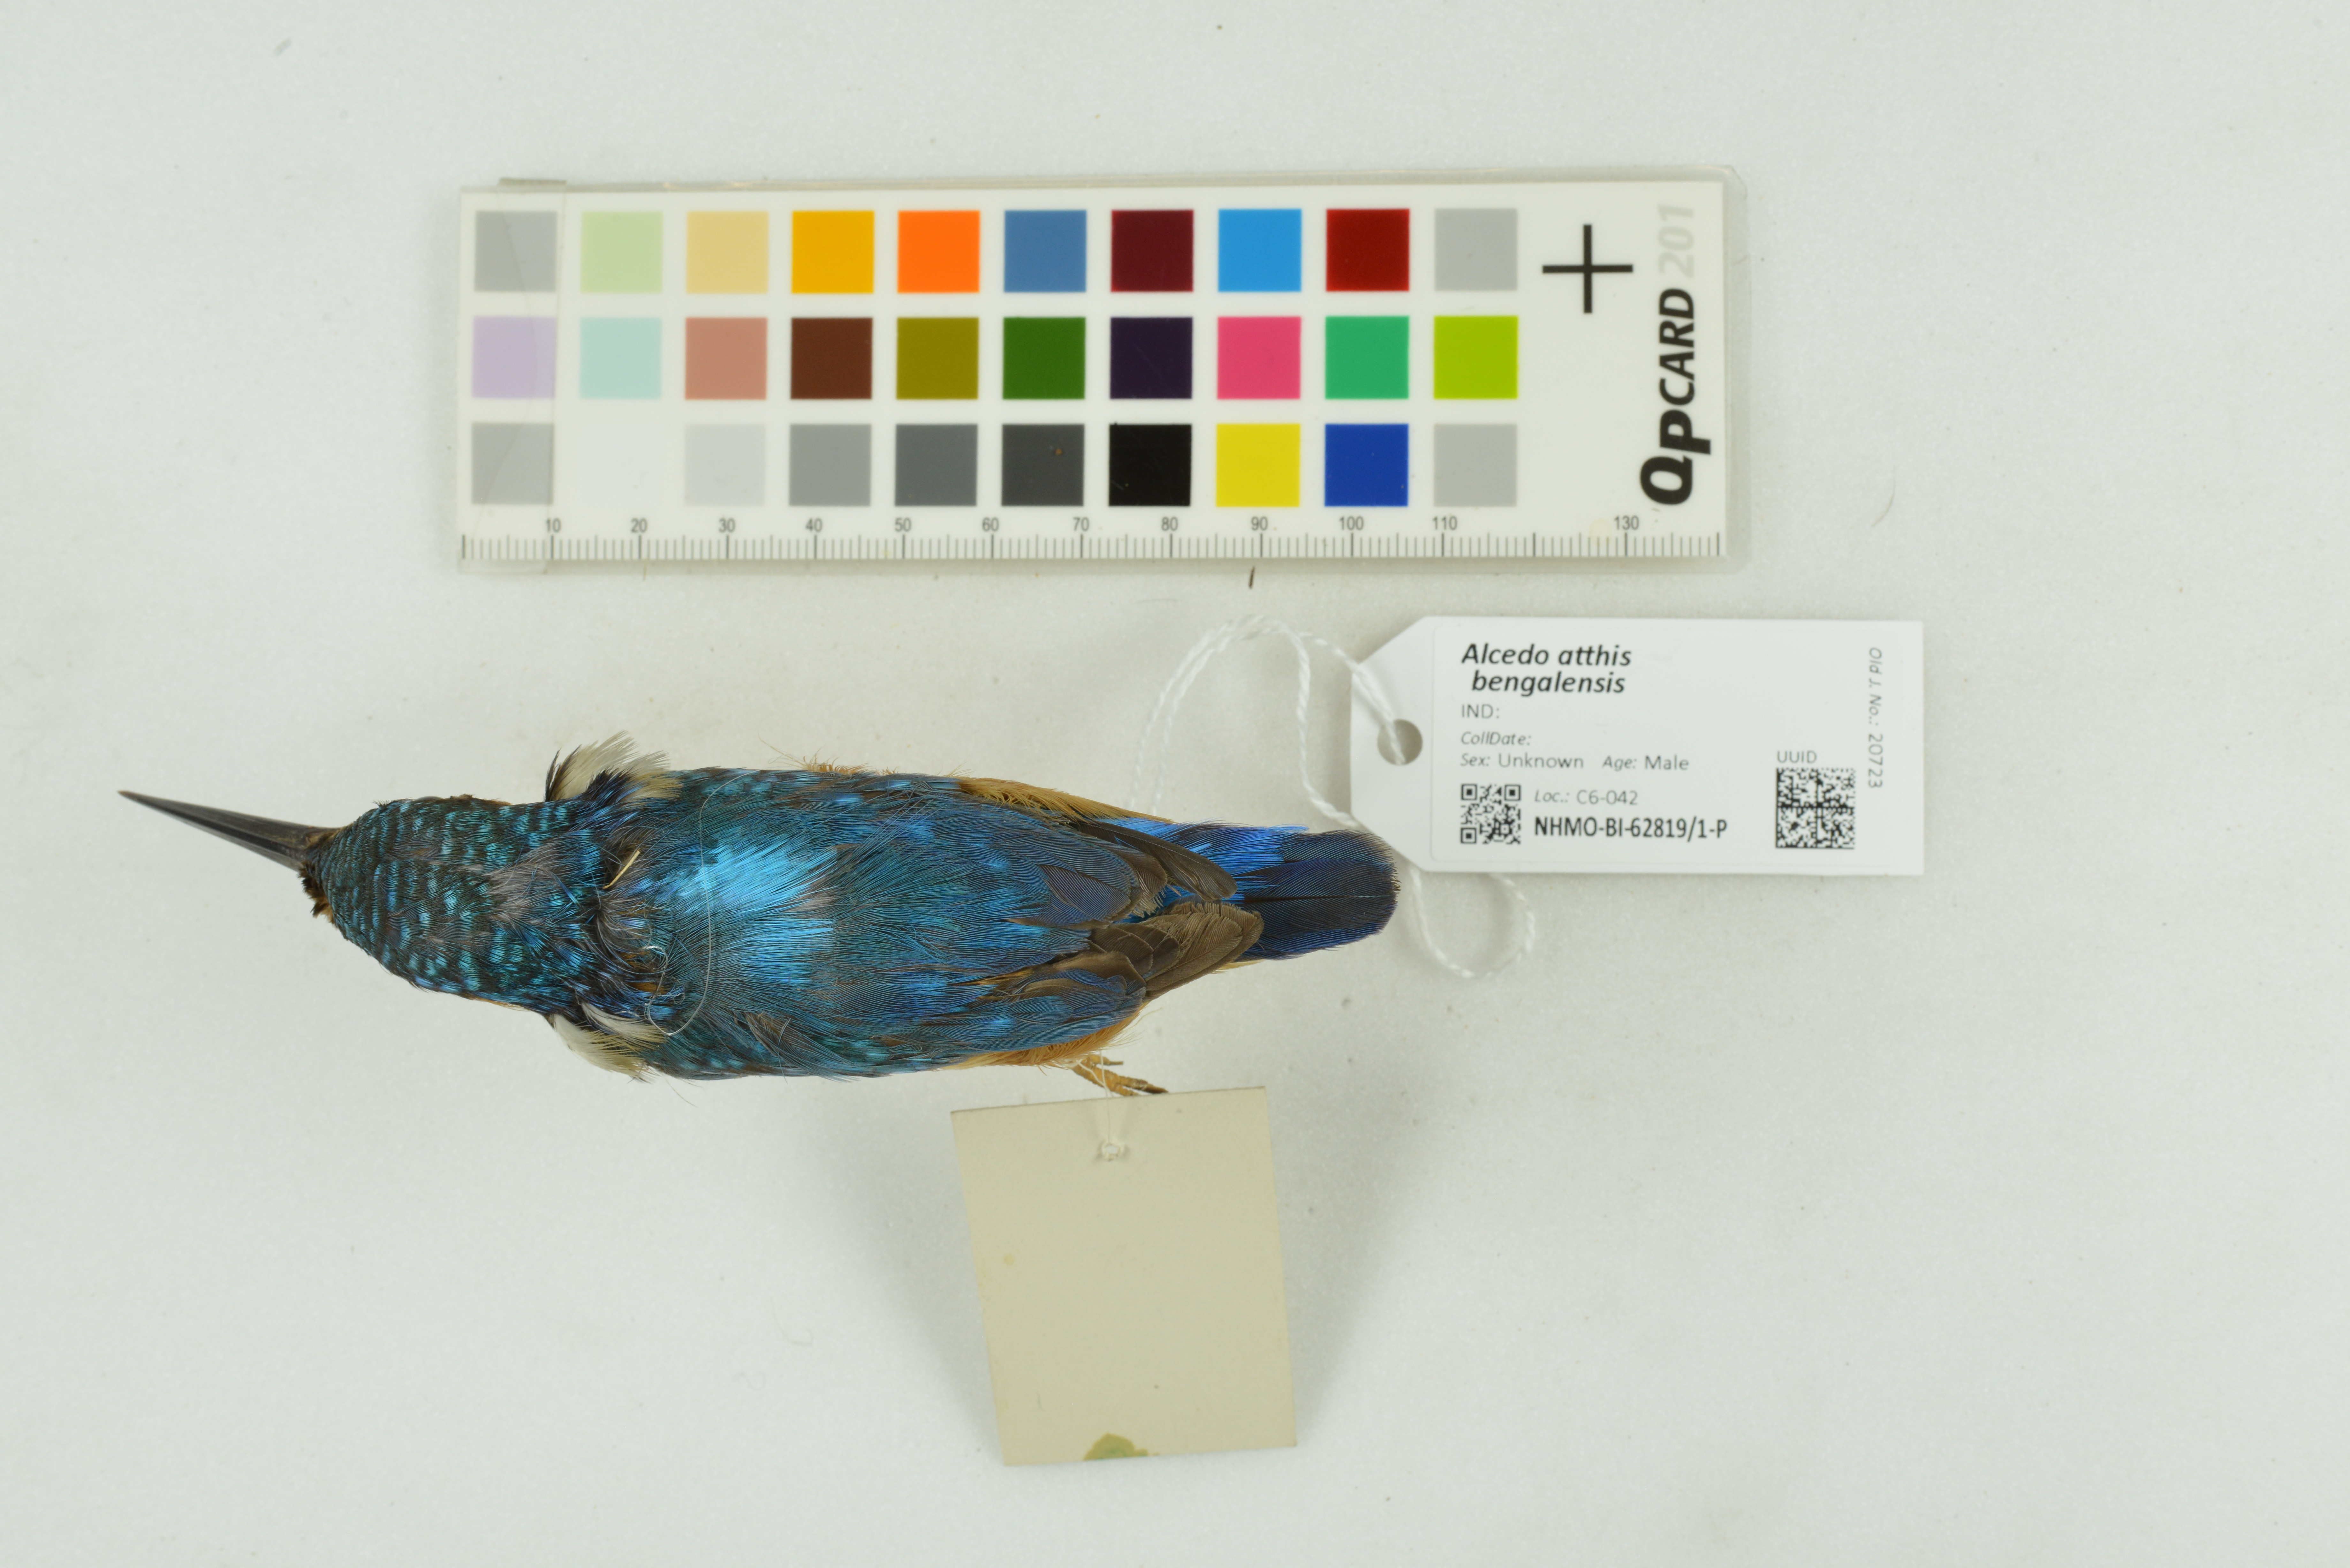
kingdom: Animalia
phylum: Chordata
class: Aves
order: Coraciiformes
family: Alcedinidae
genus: Alcedo
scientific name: Alcedo atthis
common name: Common kingfisher
